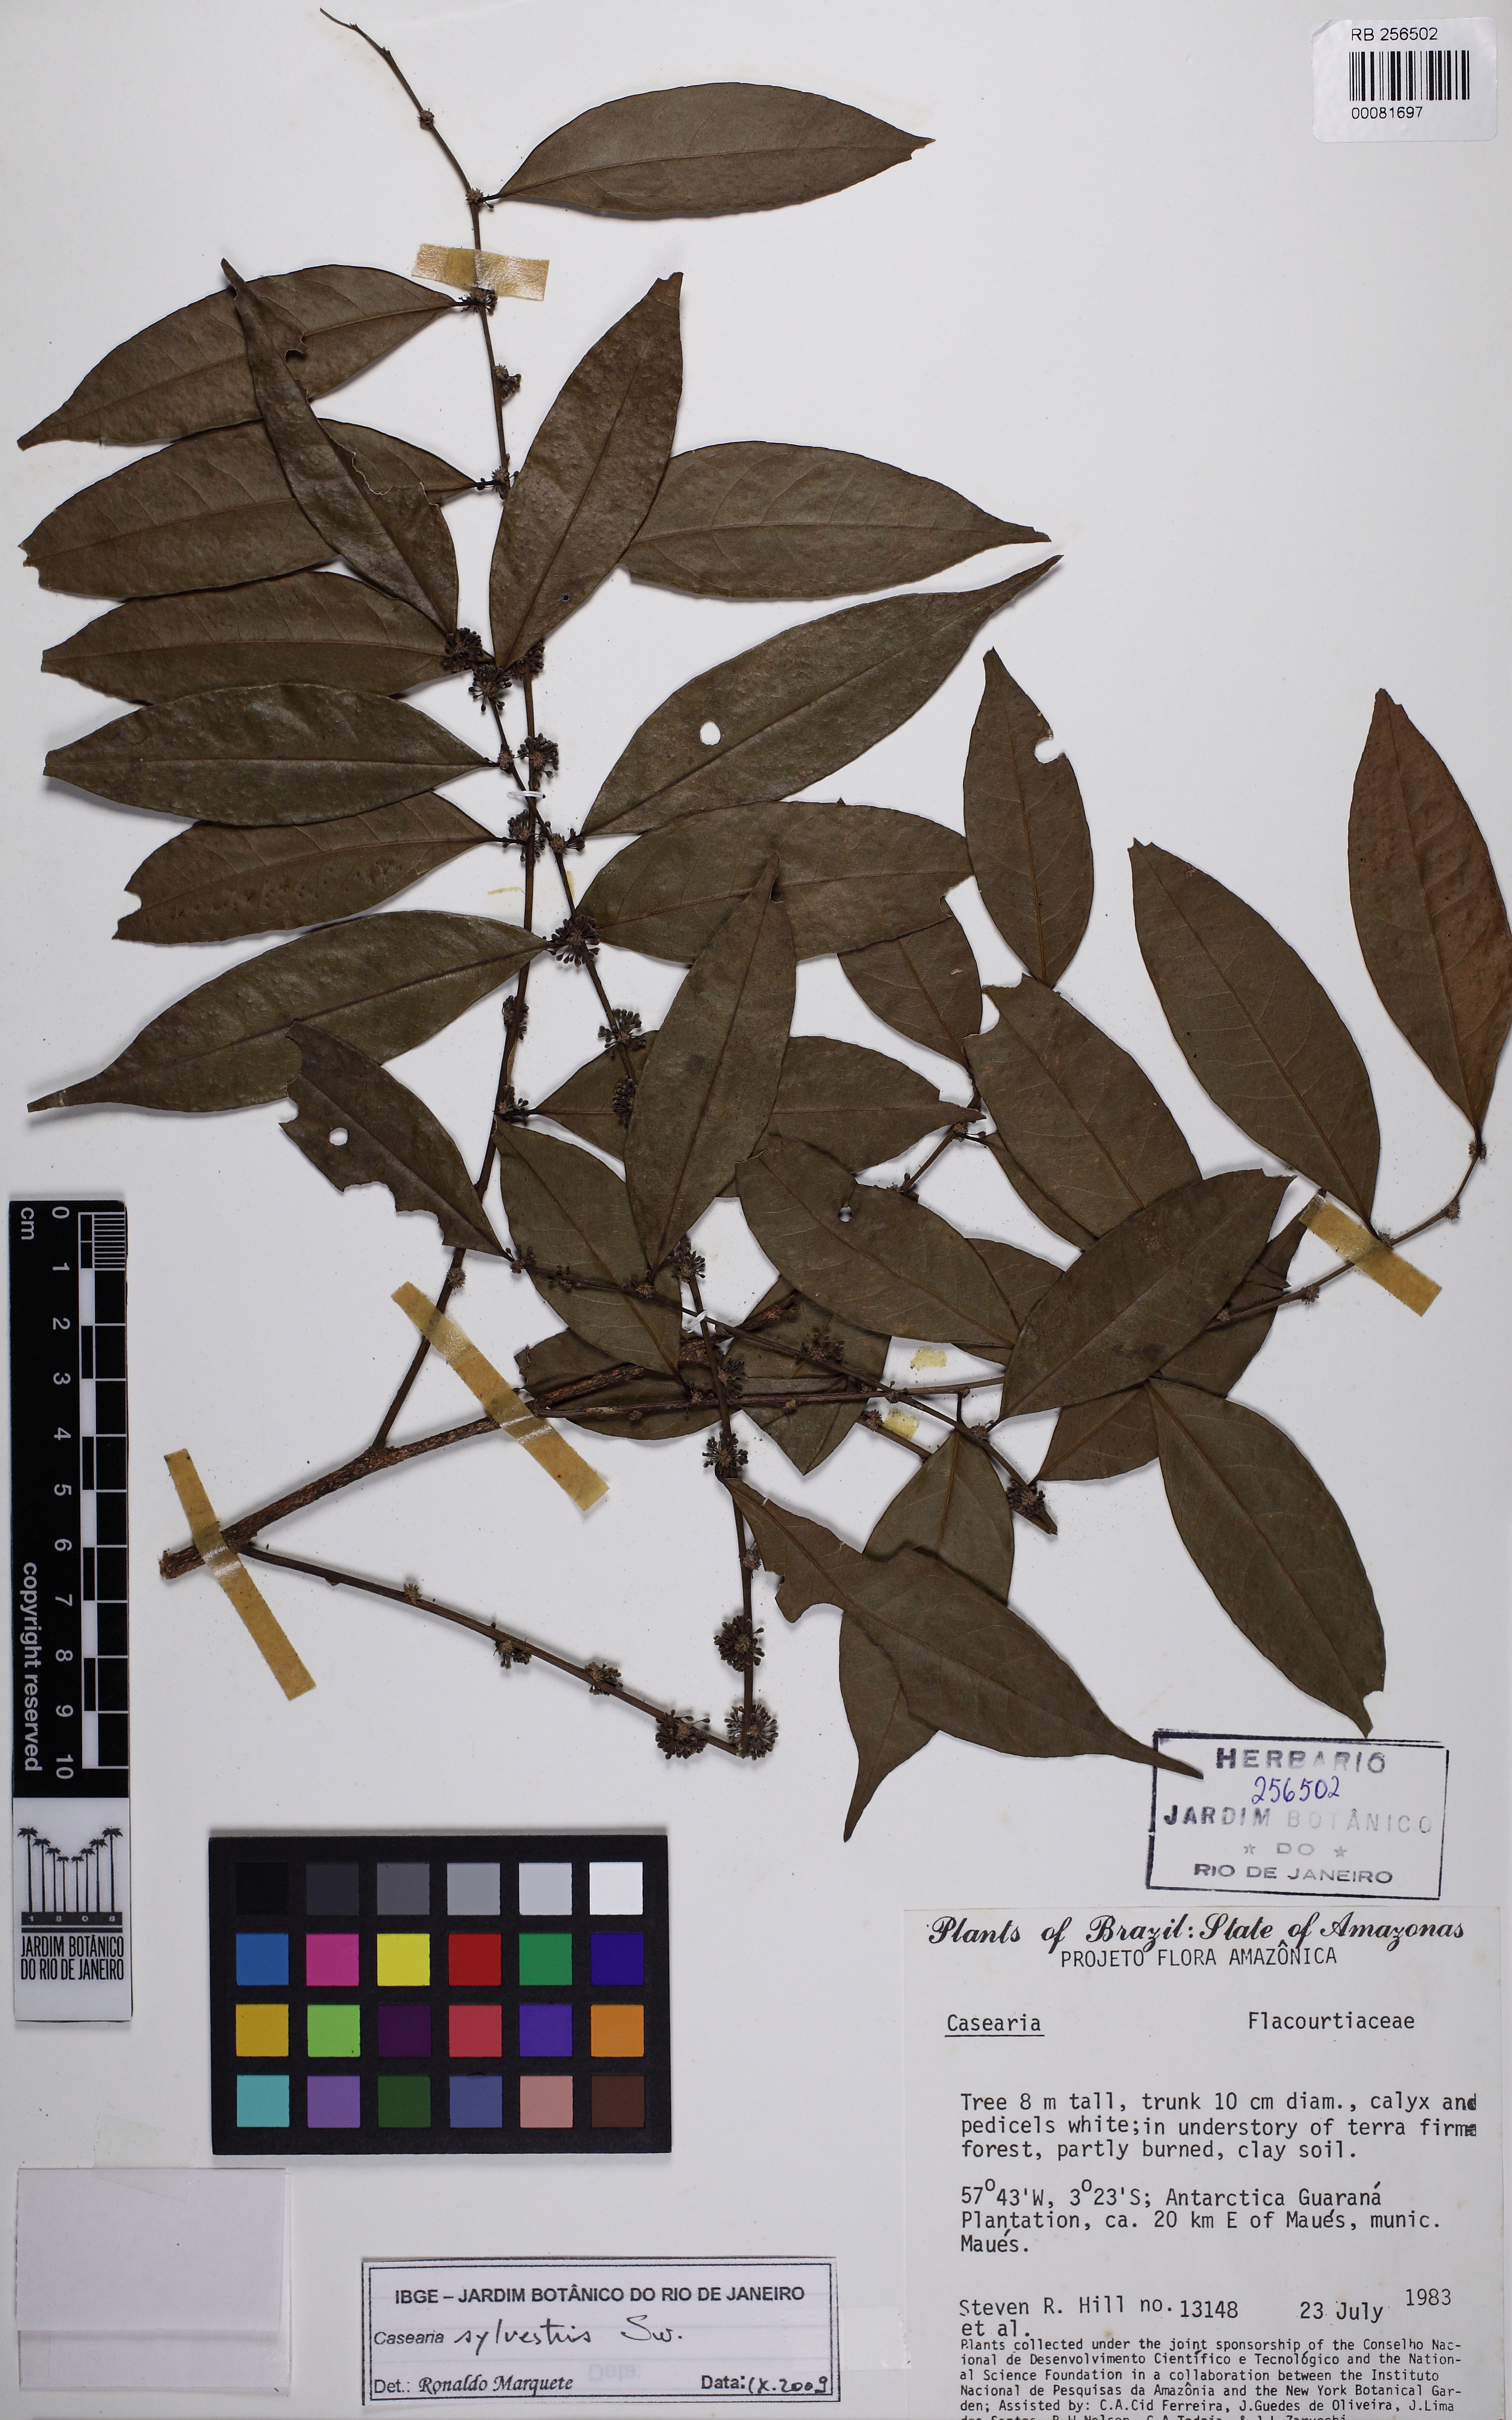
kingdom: Plantae
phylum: Tracheophyta
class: Magnoliopsida
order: Malpighiales
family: Salicaceae
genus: Casearia
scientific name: Casearia sylvestris
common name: Wild sage
